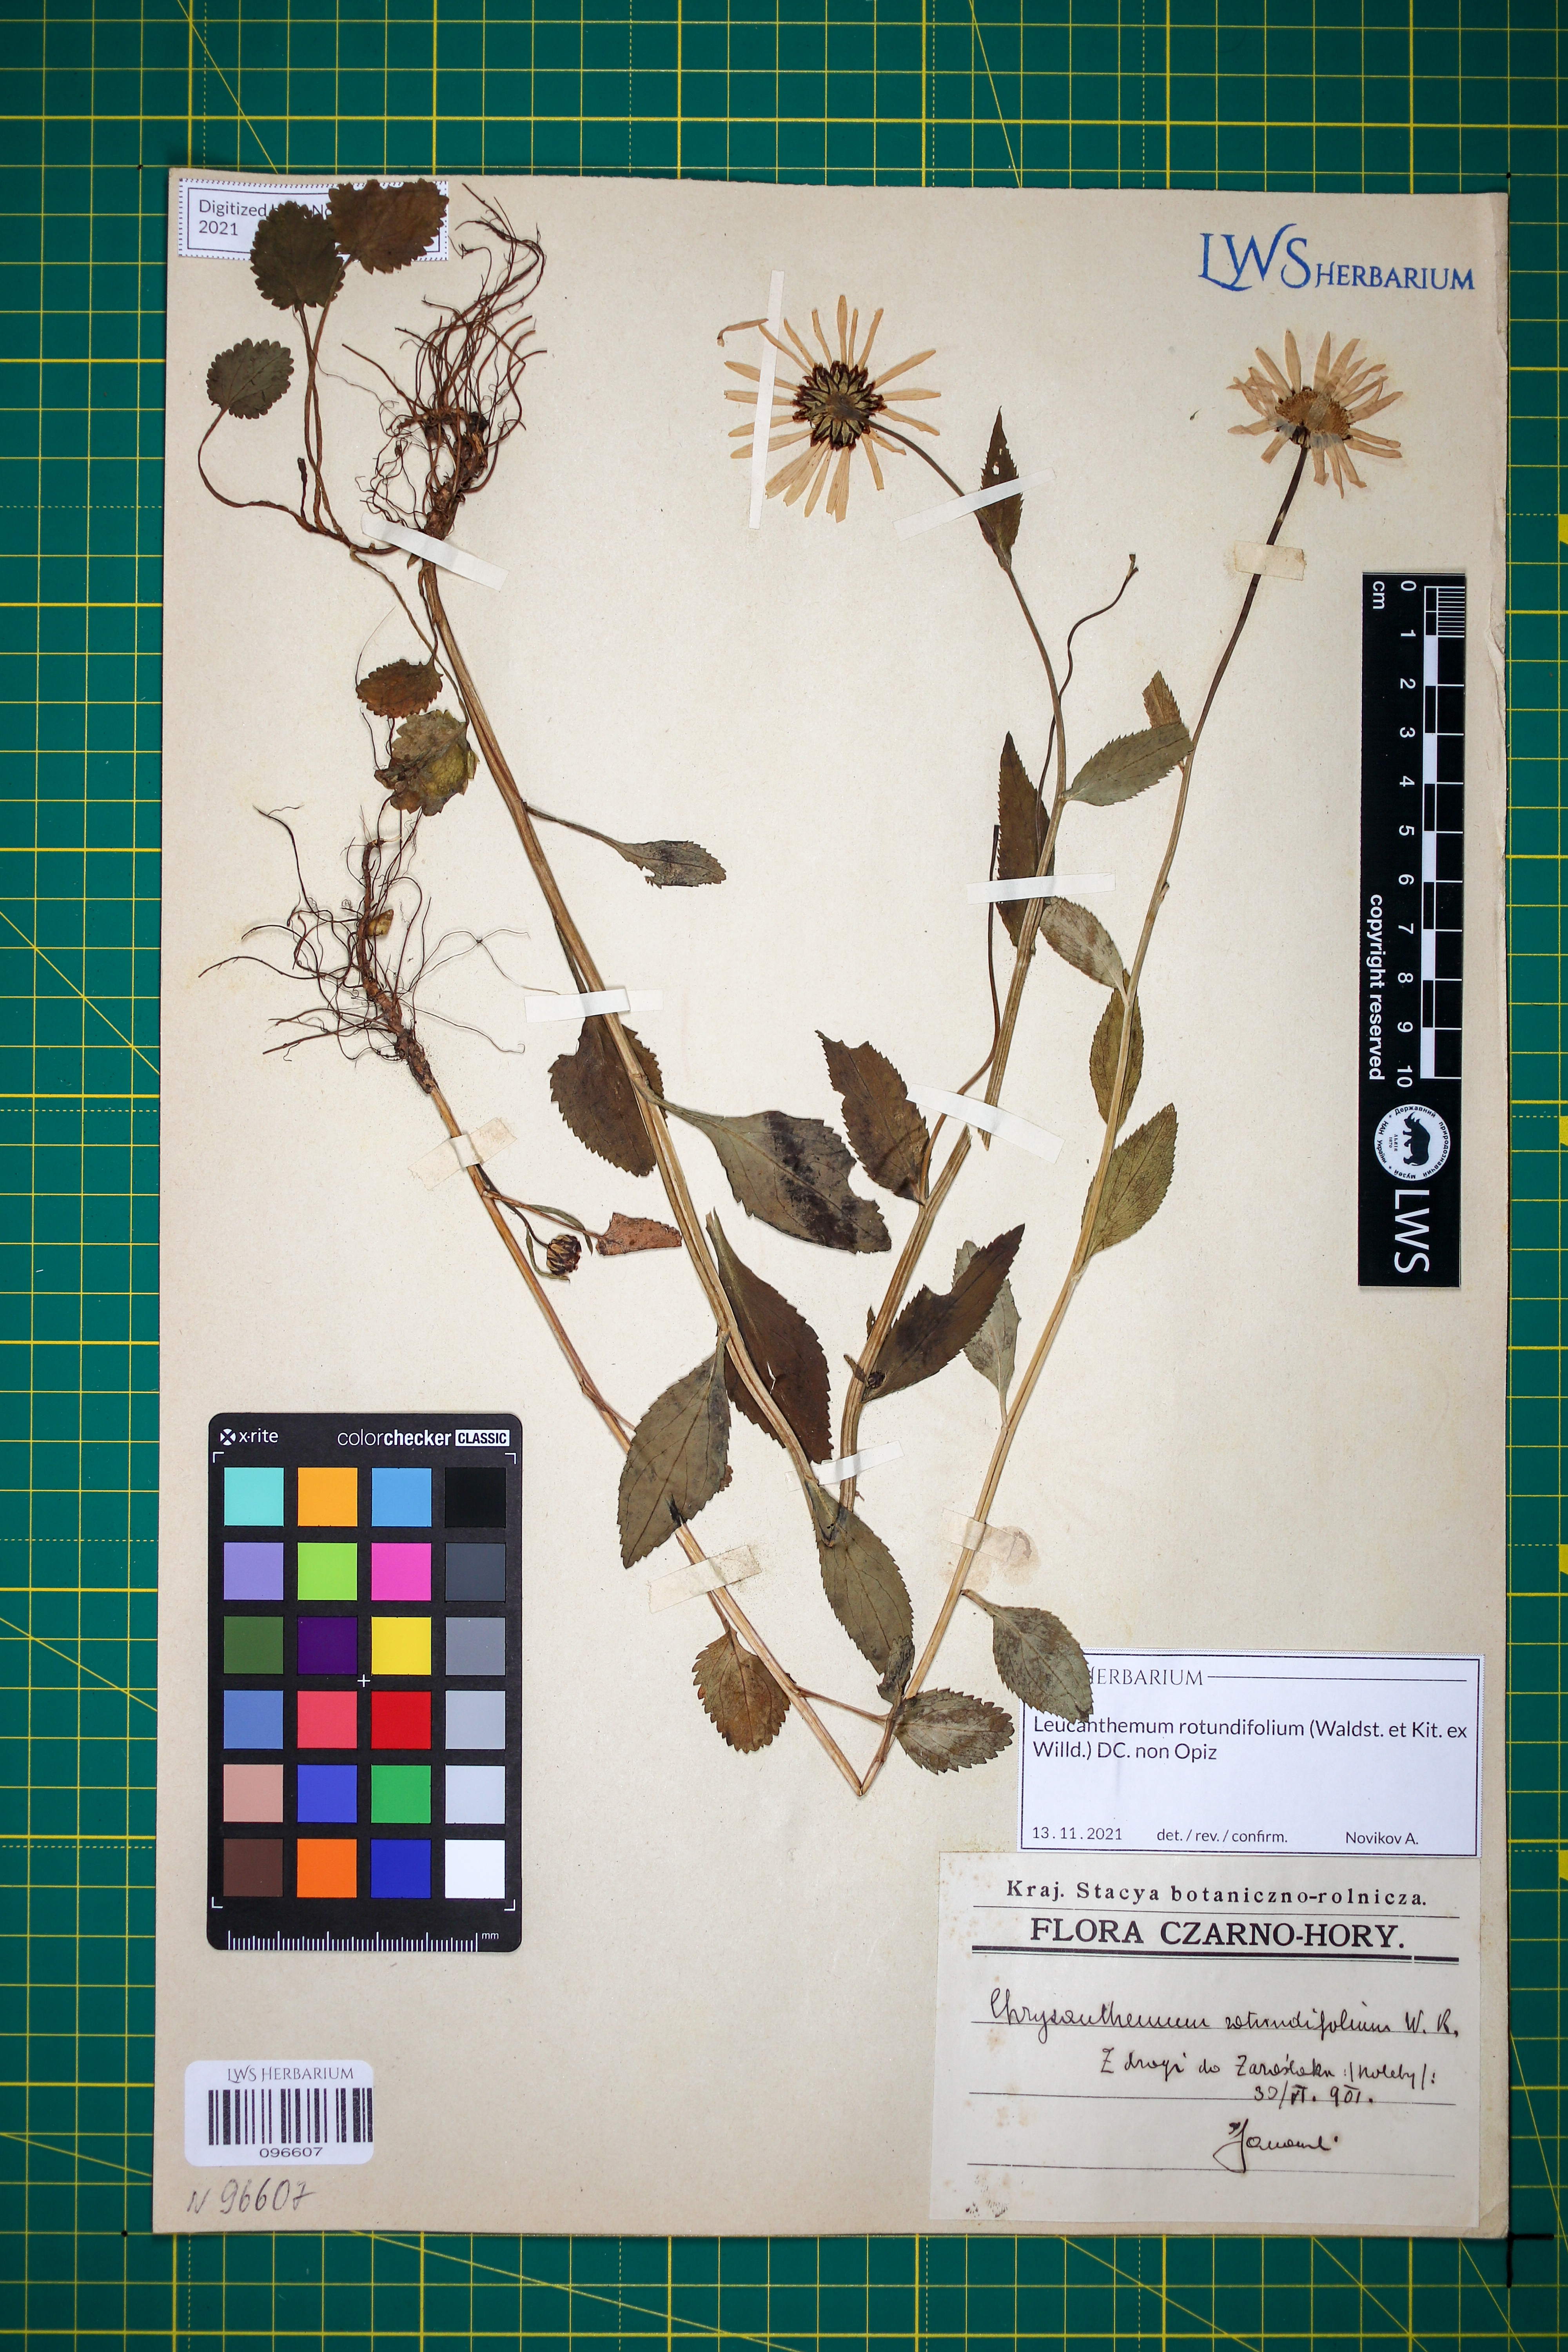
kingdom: Plantae
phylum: Tracheophyta
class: Magnoliopsida
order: Asterales
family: Asteraceae
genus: Leucanthemum
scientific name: Leucanthemum rotundifolium
